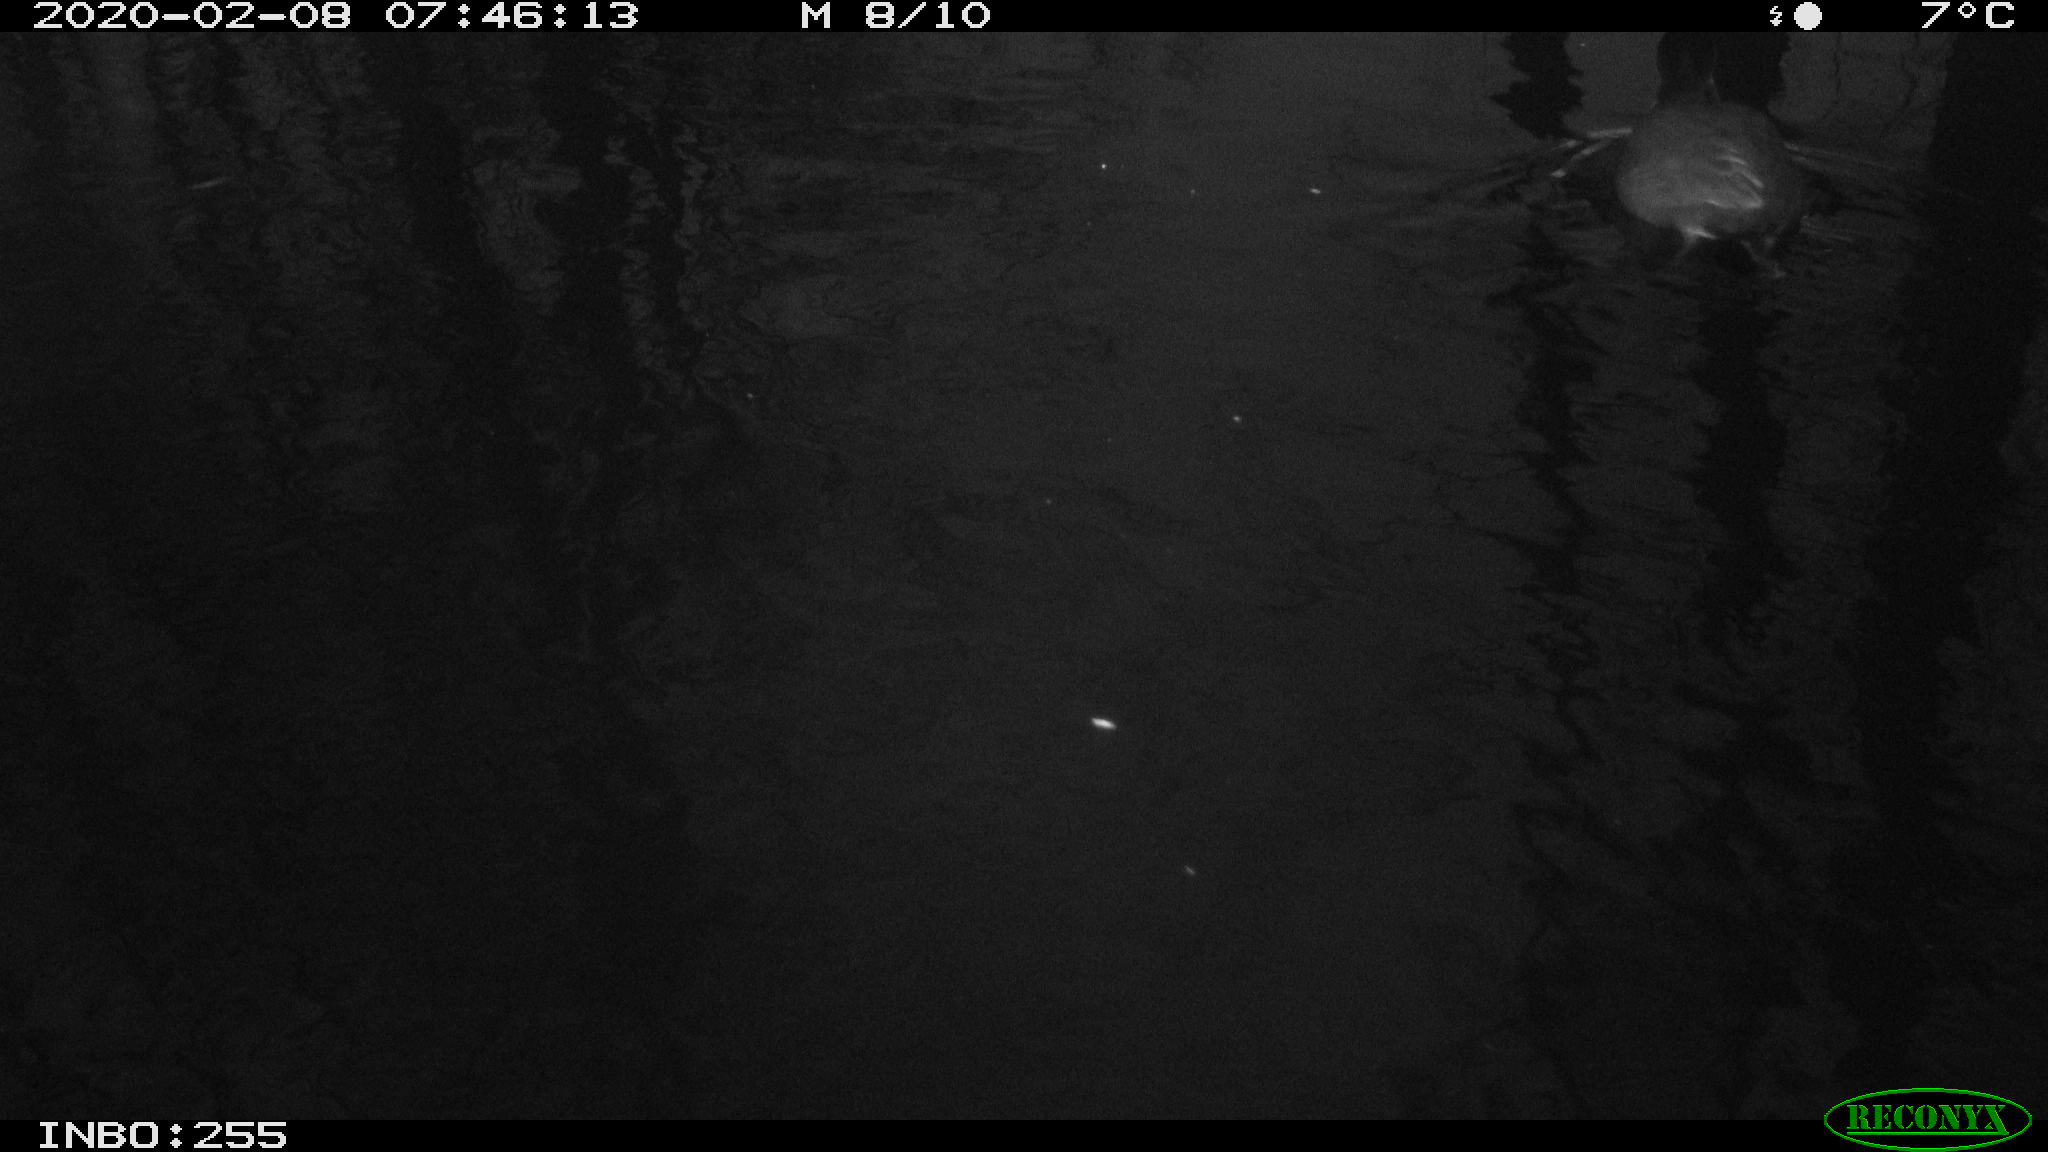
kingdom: Animalia
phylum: Chordata
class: Aves
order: Anseriformes
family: Anatidae
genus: Anas
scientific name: Anas platyrhynchos
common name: Mallard
